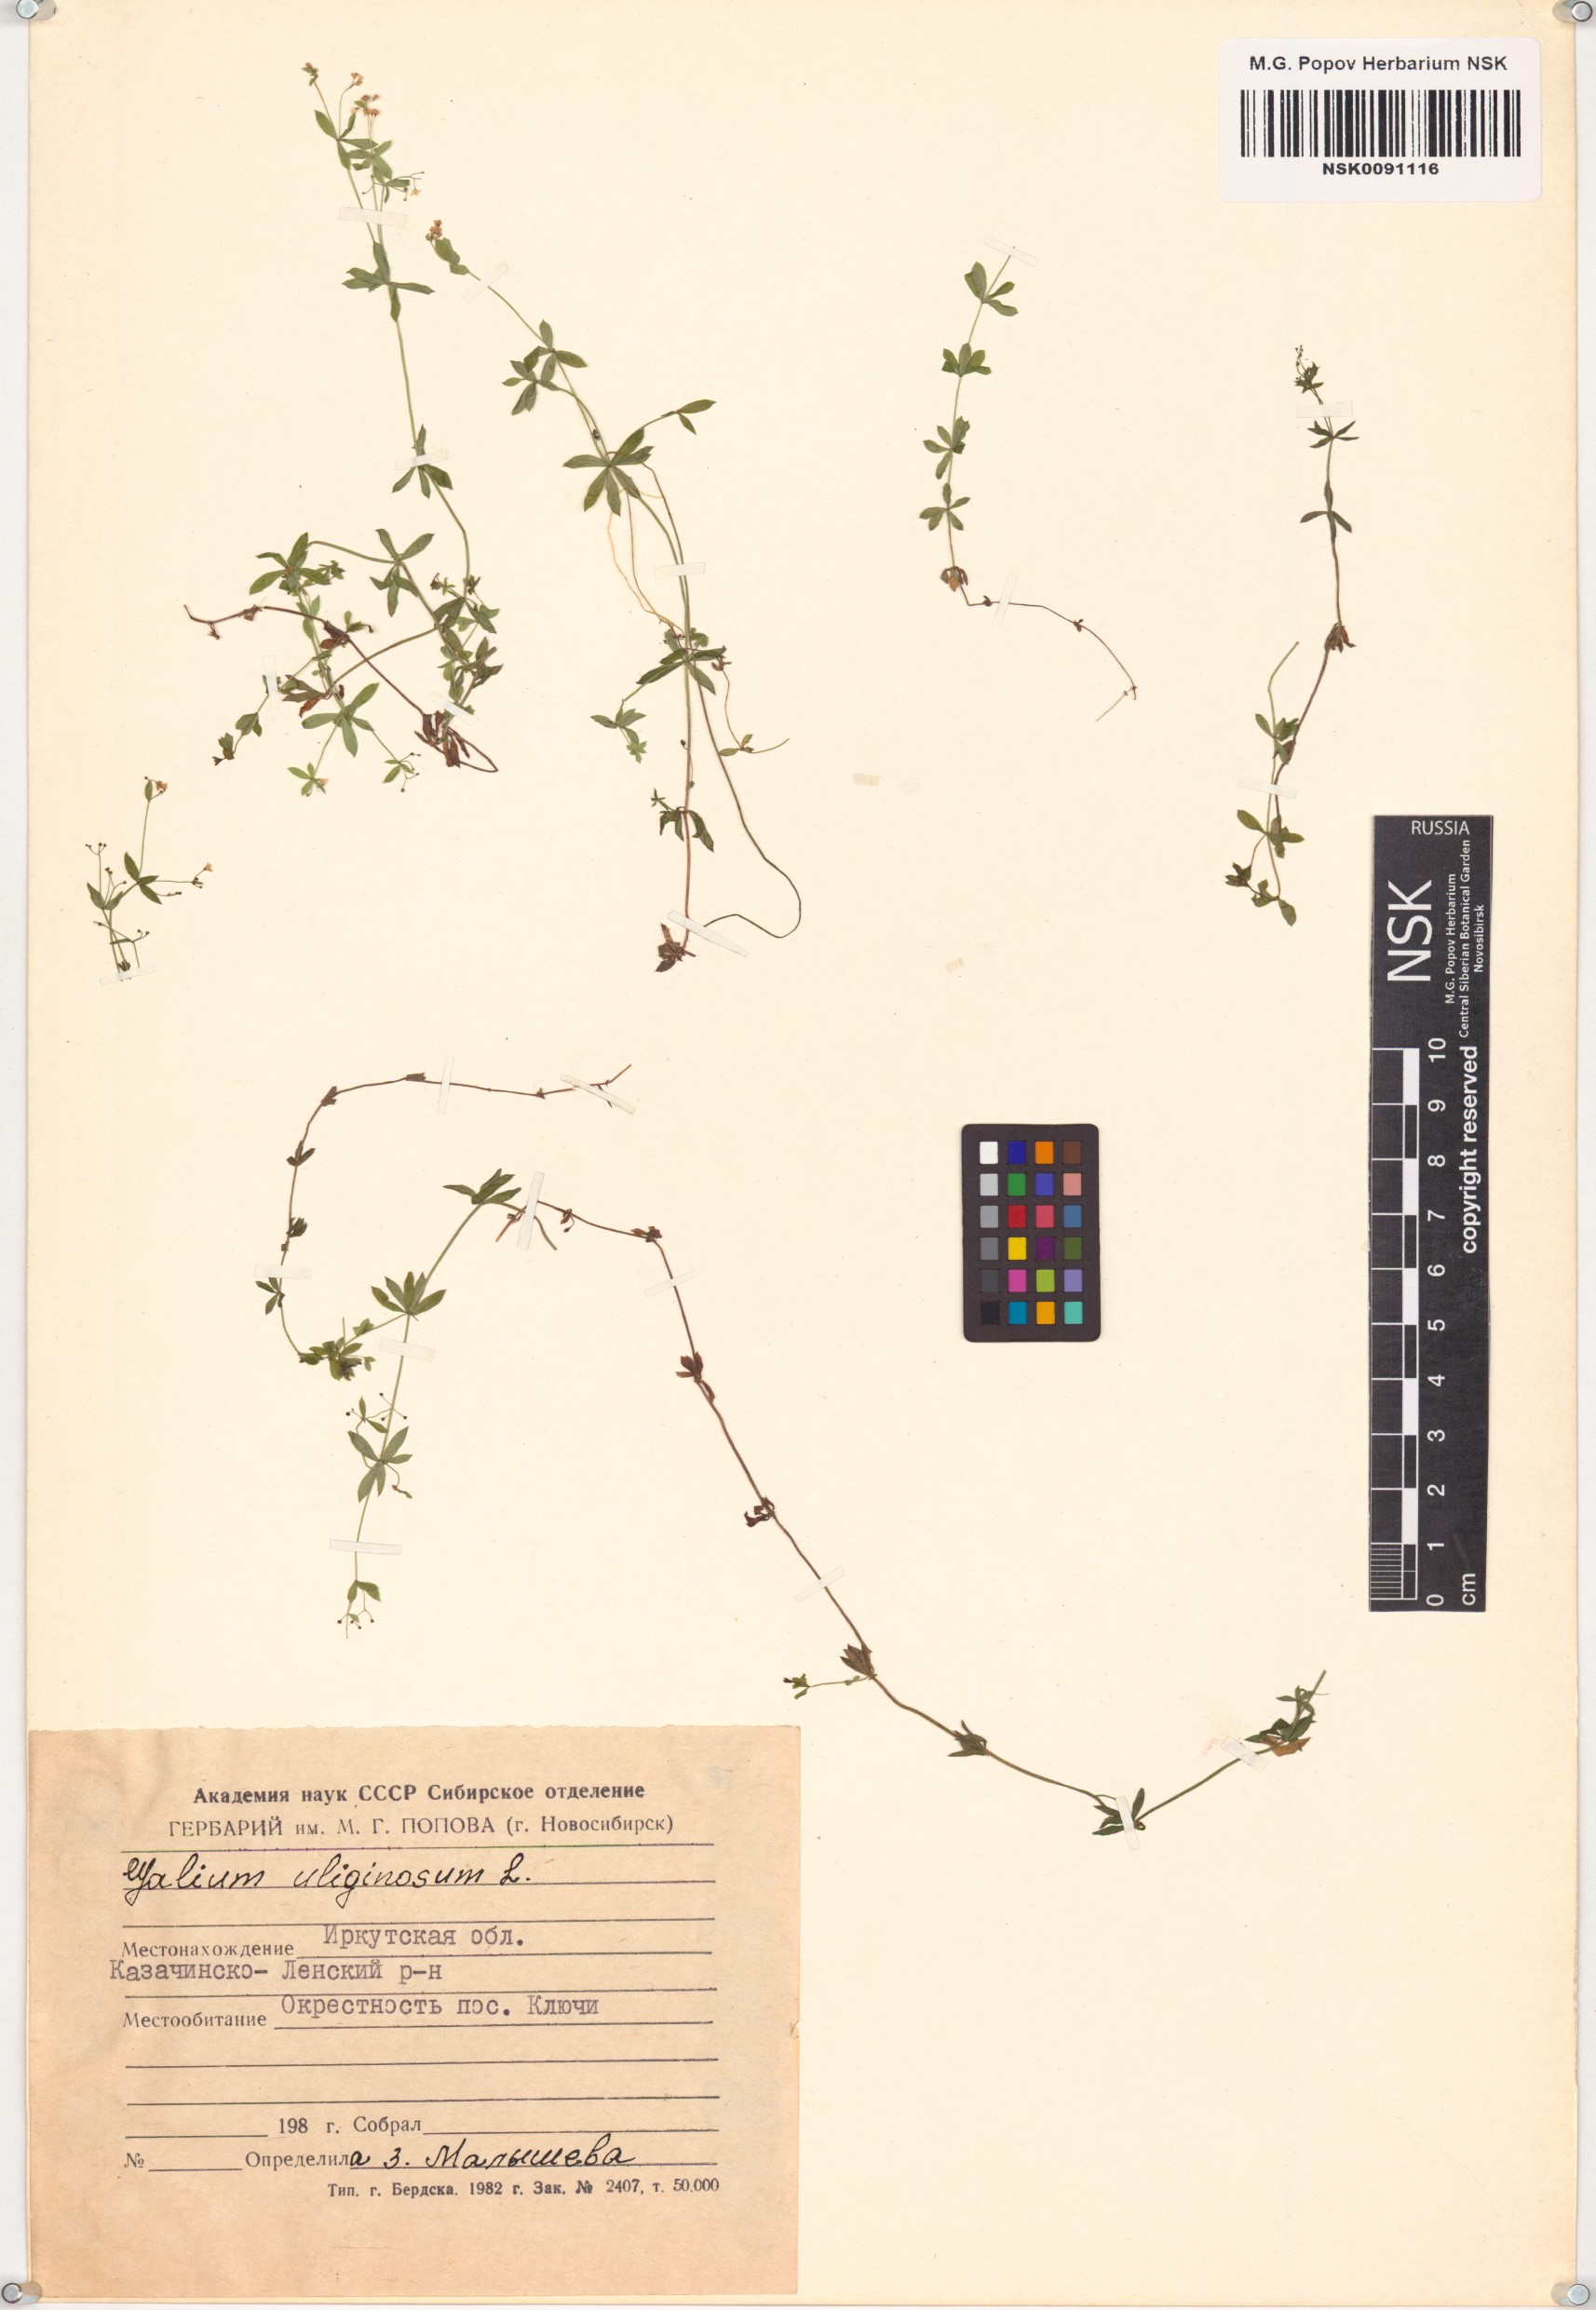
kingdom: Plantae
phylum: Tracheophyta
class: Magnoliopsida
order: Gentianales
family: Rubiaceae
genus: Galium
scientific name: Galium uliginosum
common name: Fen bedstraw
